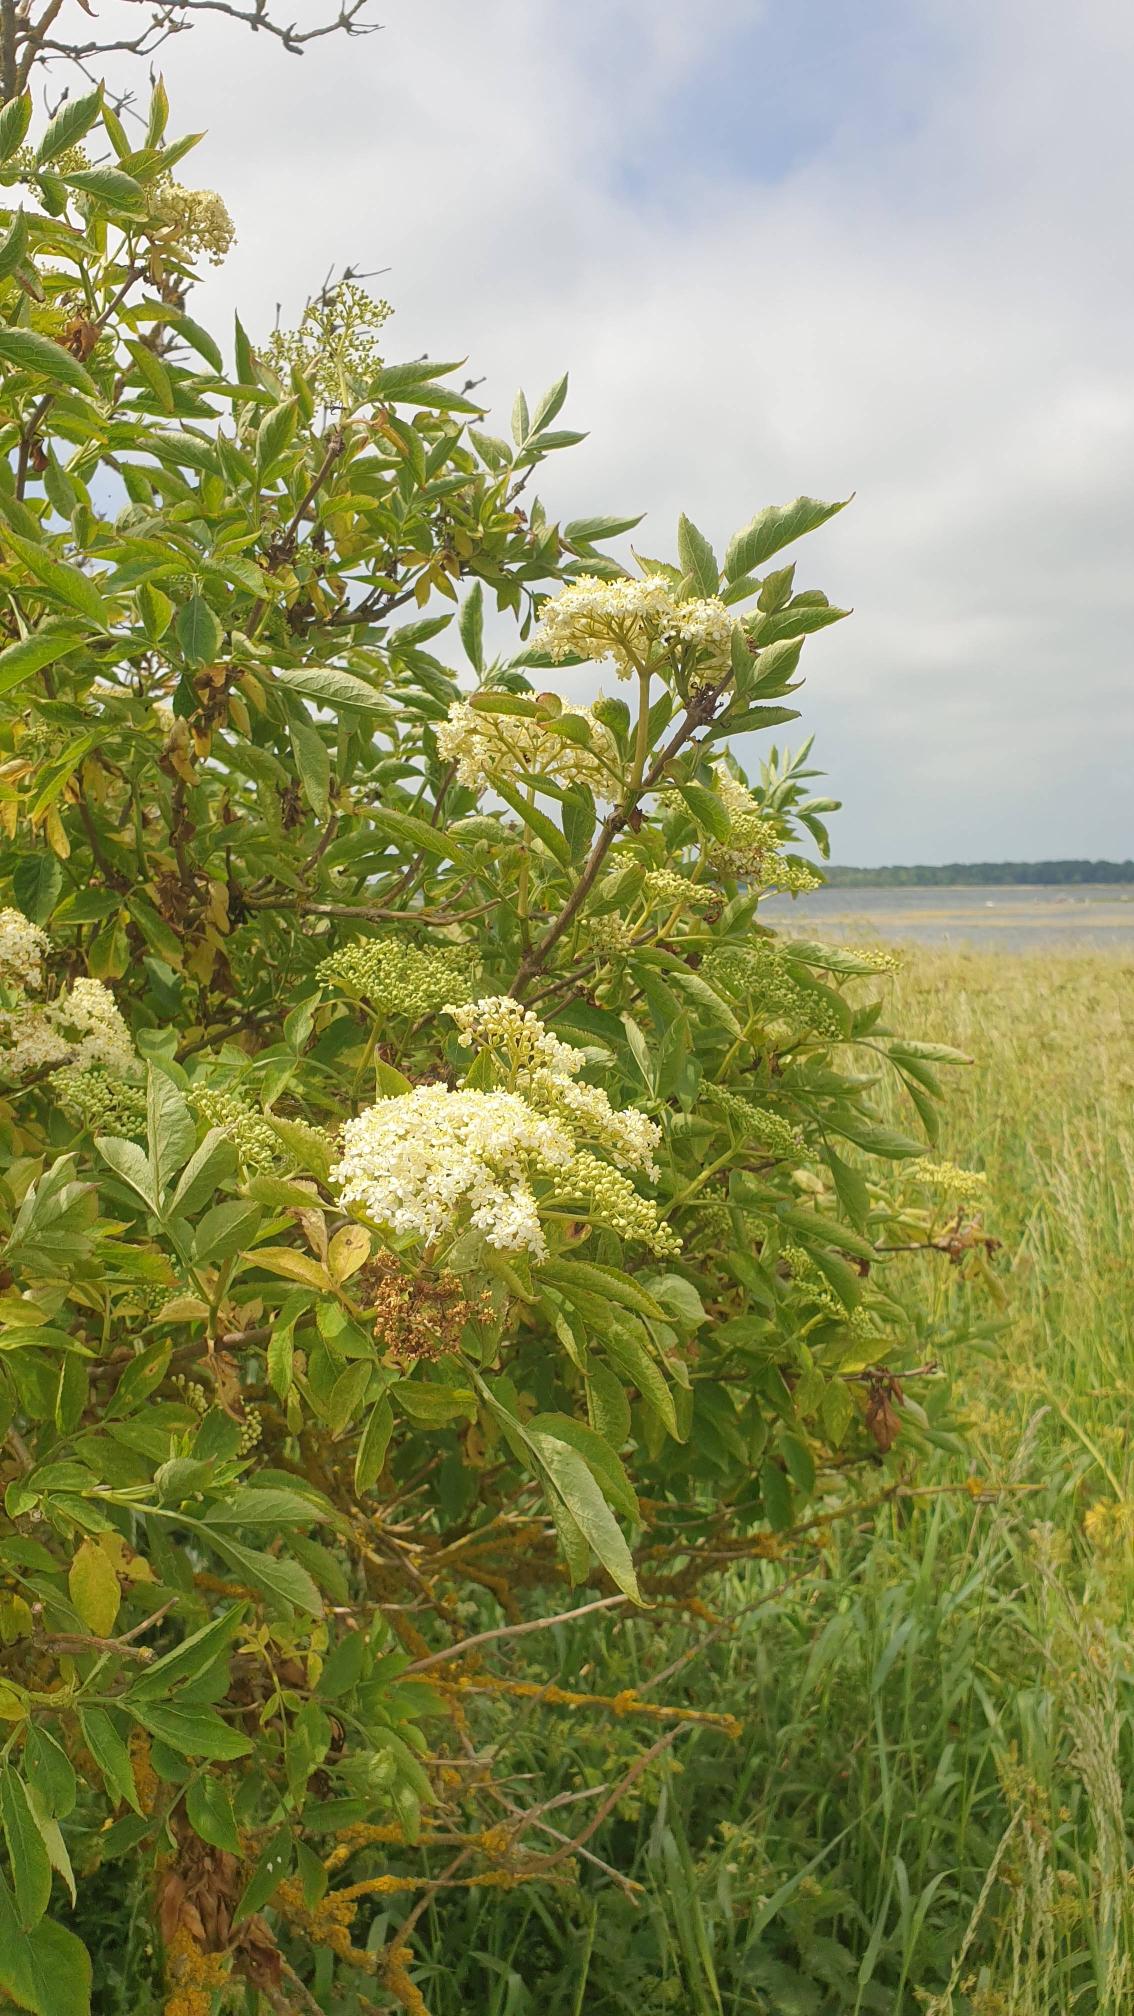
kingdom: Plantae
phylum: Tracheophyta
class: Magnoliopsida
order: Dipsacales
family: Viburnaceae
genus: Sambucus
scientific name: Sambucus nigra
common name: Almindelig hyld
